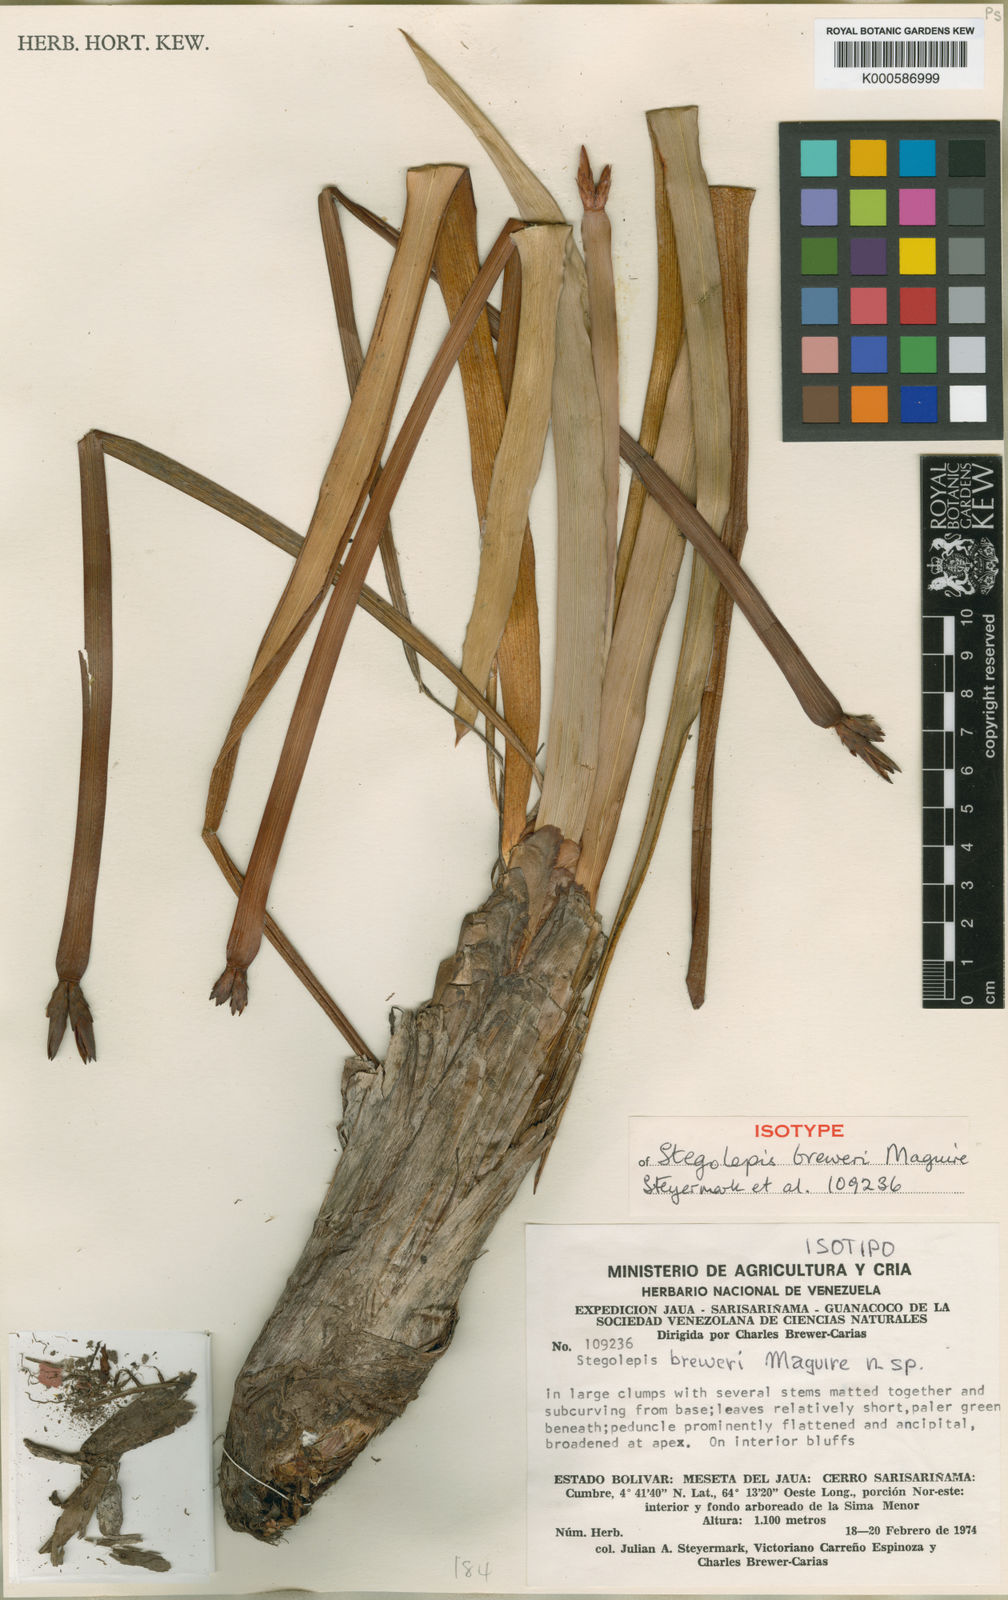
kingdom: Plantae
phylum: Tracheophyta
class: Liliopsida
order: Poales
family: Rapateaceae
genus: Stegolepis
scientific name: Stegolepis breweri
